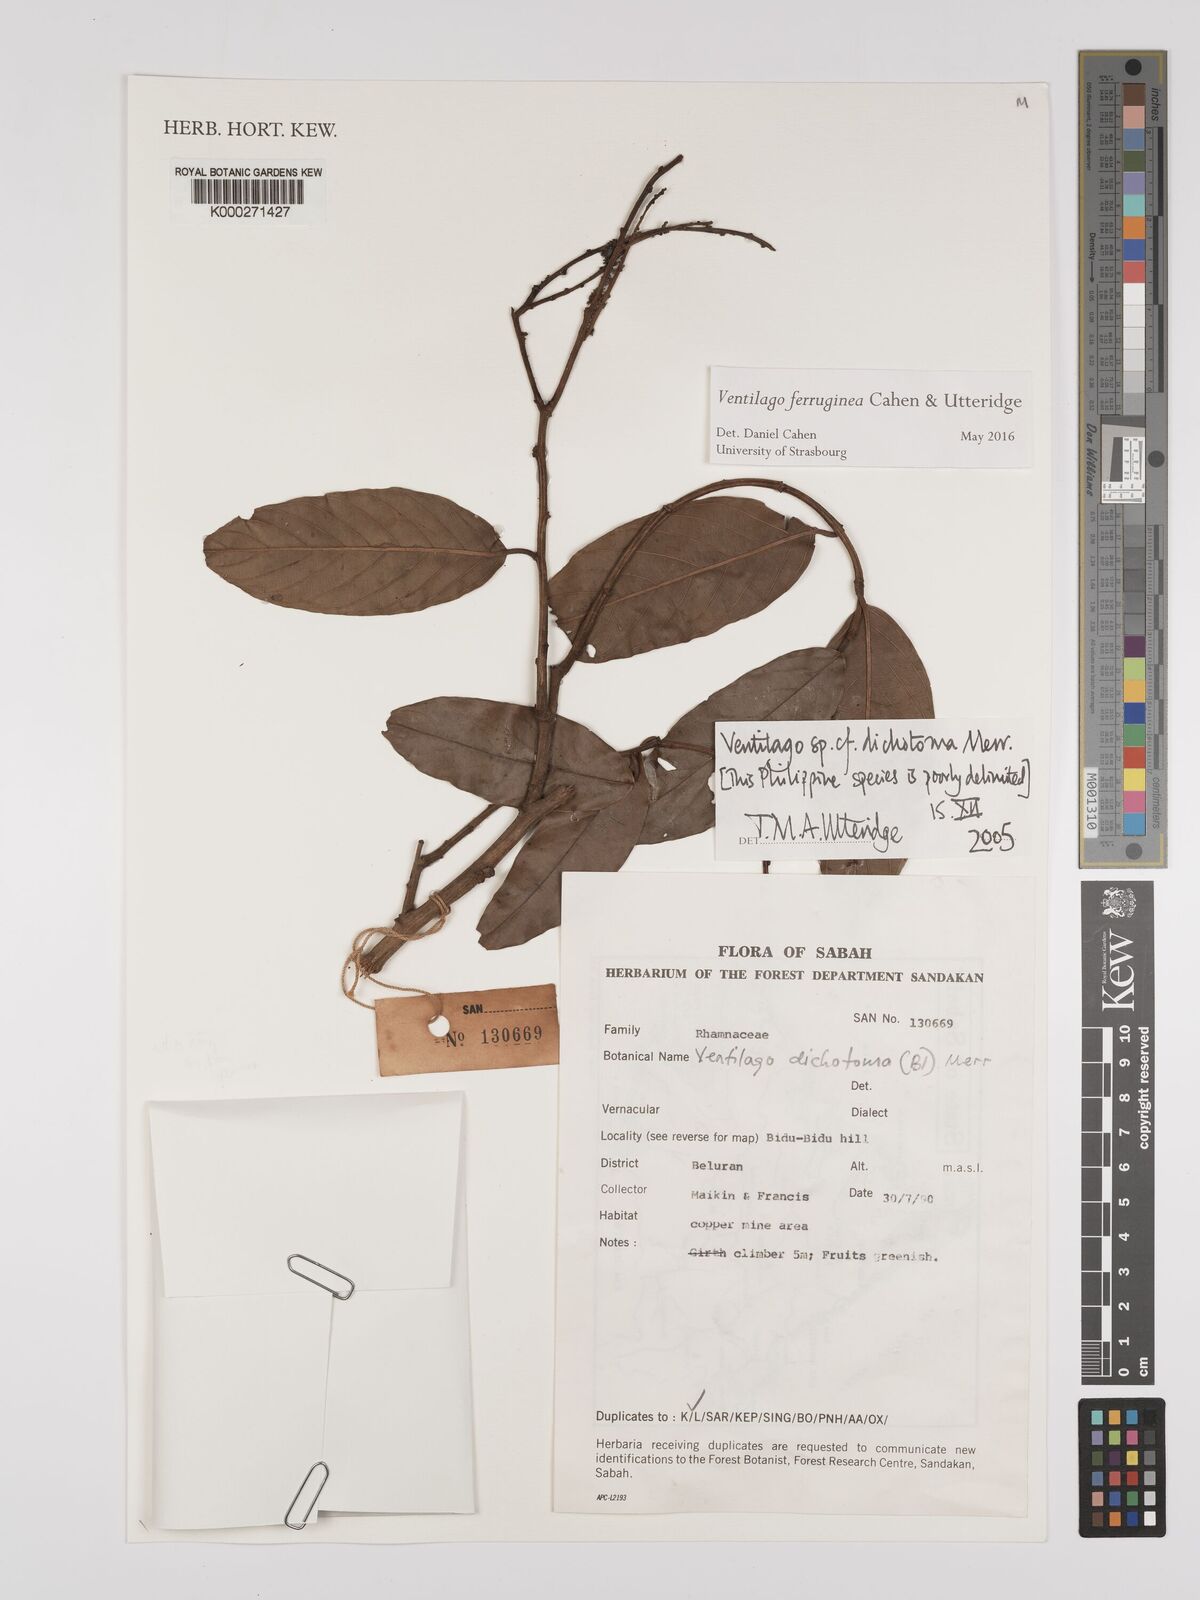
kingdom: Plantae
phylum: Tracheophyta
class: Magnoliopsida
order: Rosales
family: Rhamnaceae
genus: Ventilago
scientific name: Ventilago
